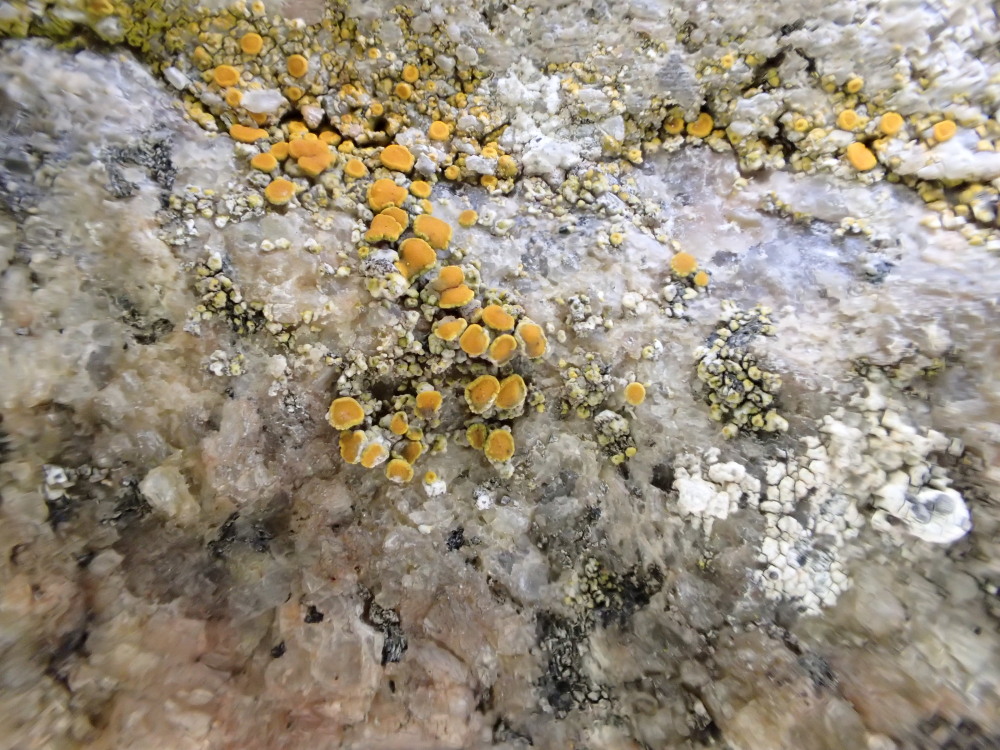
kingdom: Fungi
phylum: Ascomycota
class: Lecanoromycetes
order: Teloschistales
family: Teloschistaceae
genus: Flavoplaca
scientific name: Flavoplaca citrina
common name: støvet orangelav
